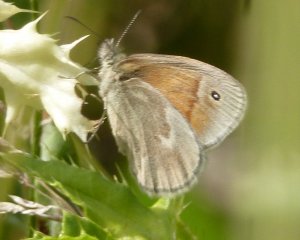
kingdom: Animalia
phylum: Arthropoda
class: Insecta
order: Lepidoptera
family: Nymphalidae
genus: Coenonympha
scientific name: Coenonympha tullia
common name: Large Heath
